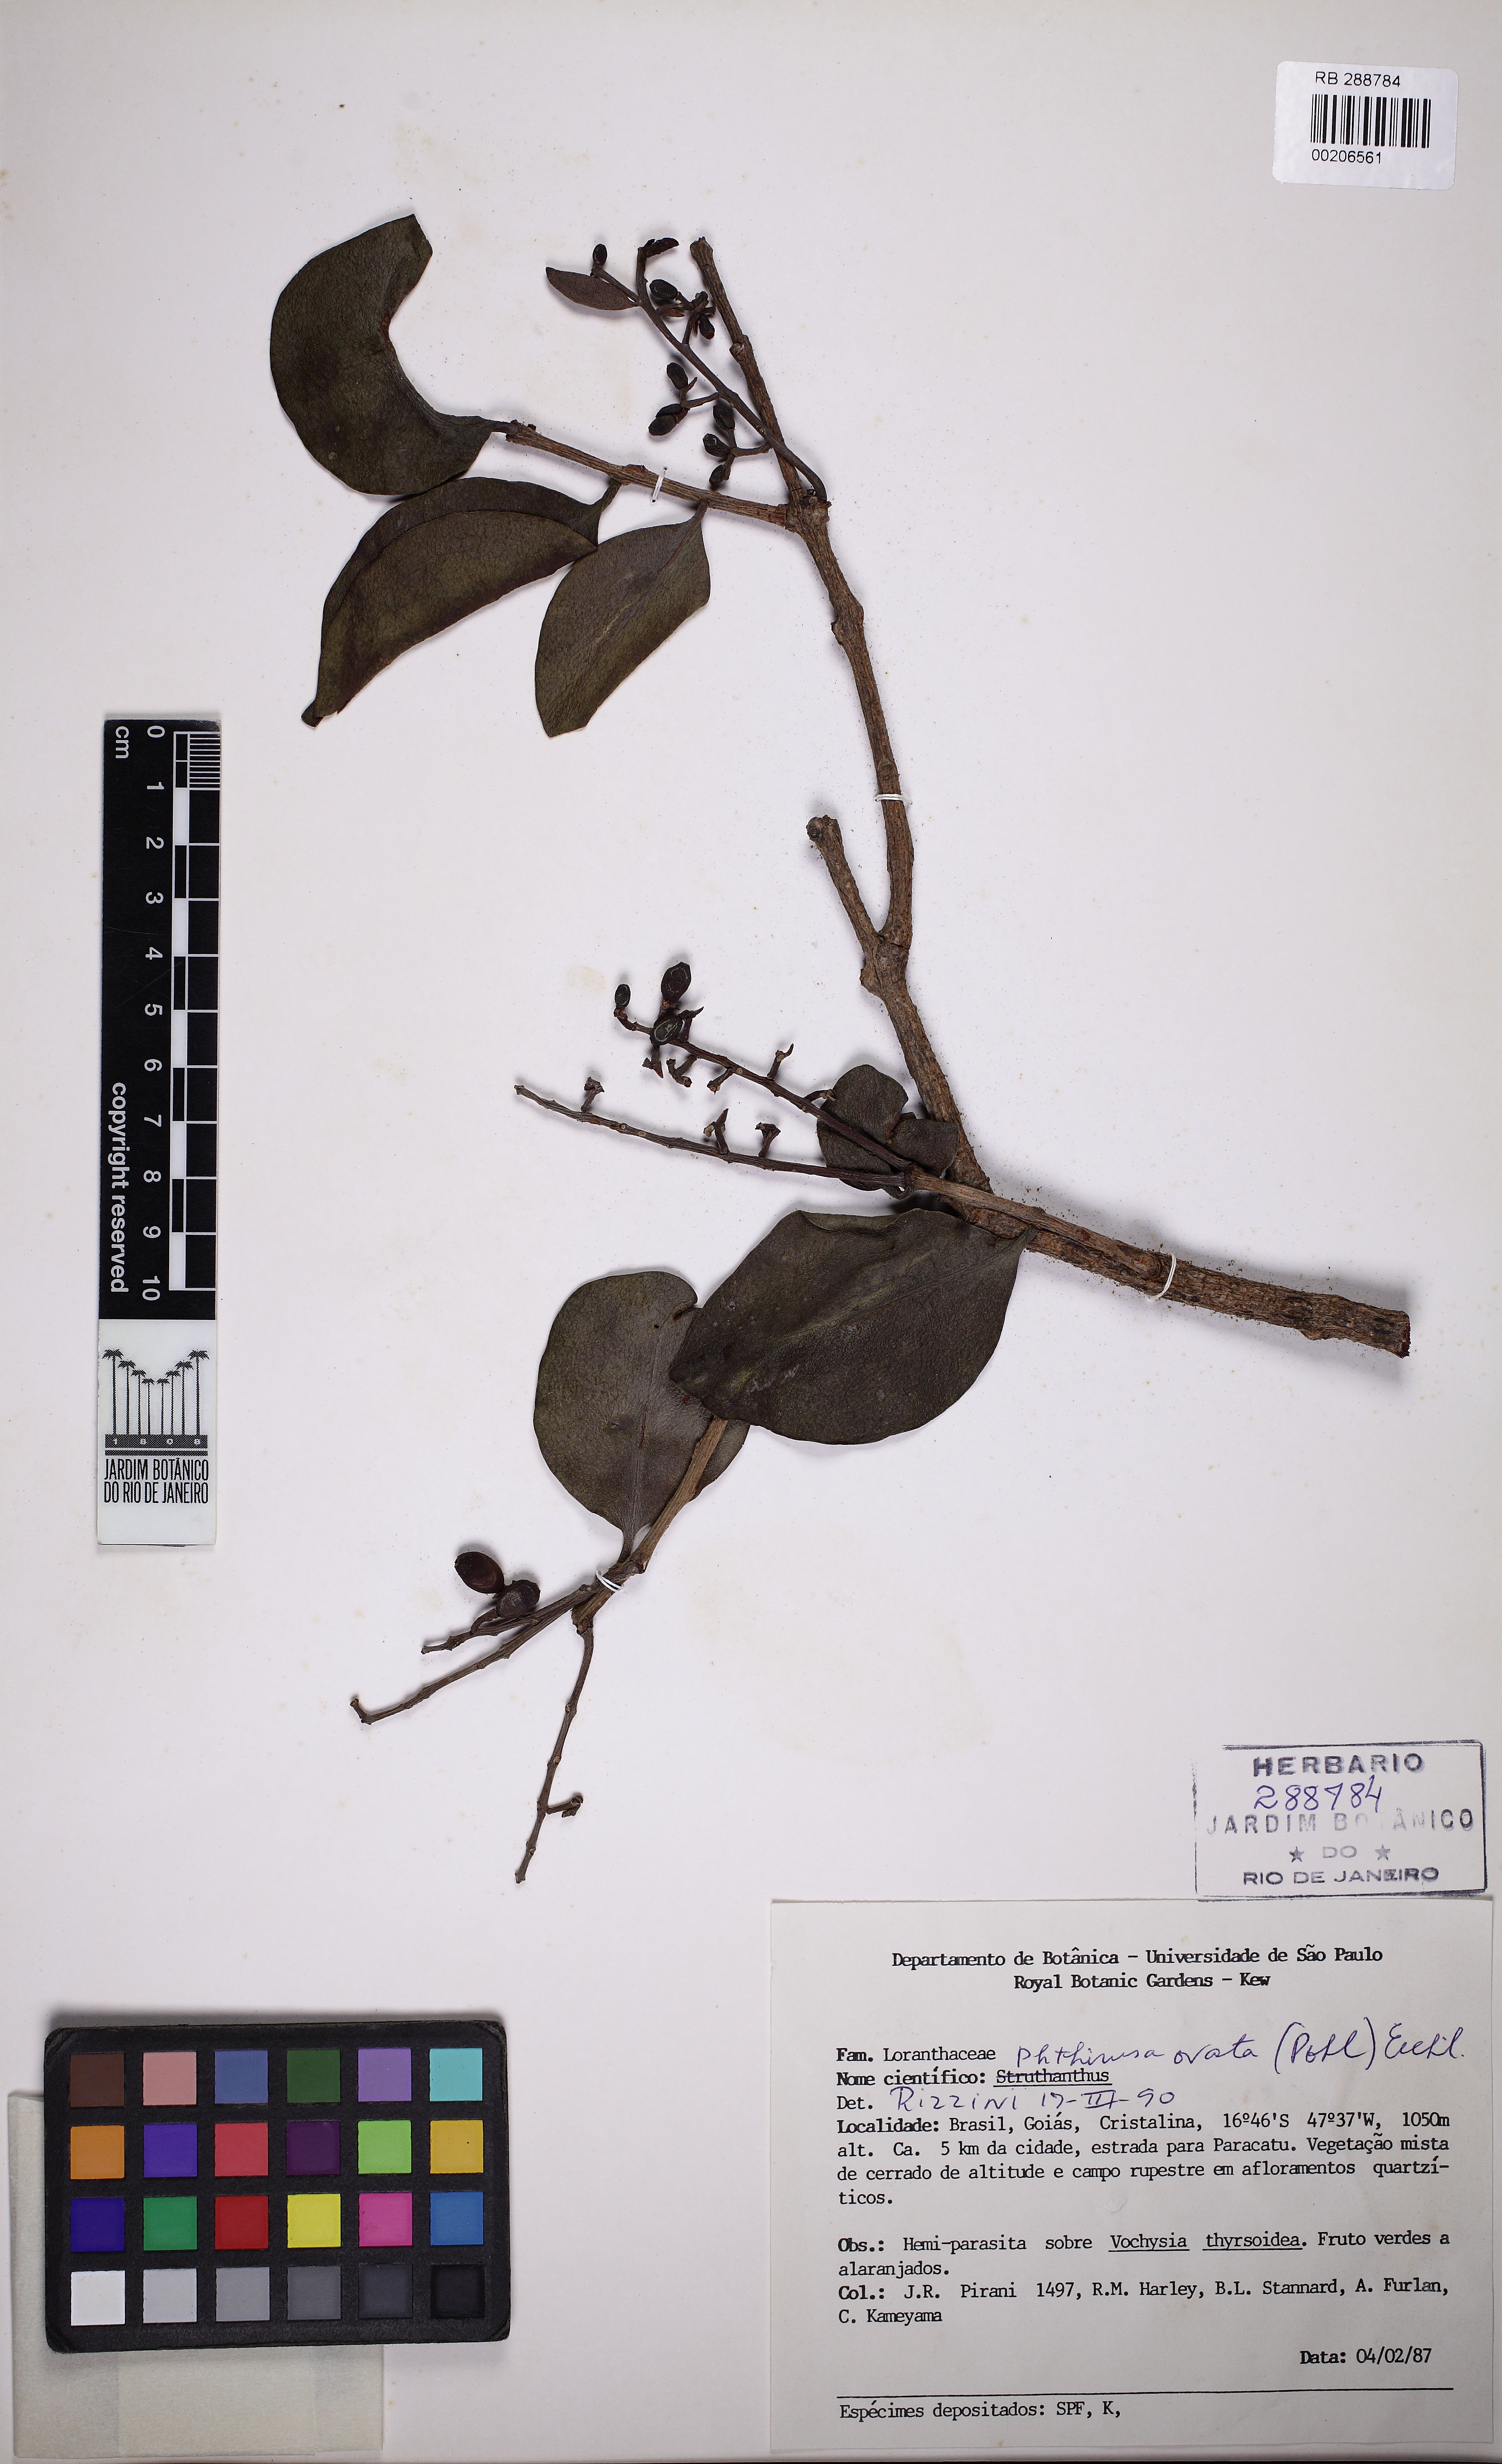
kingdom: Plantae
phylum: Tracheophyta
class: Magnoliopsida
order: Santalales
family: Loranthaceae
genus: Passovia
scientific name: Passovia ovata
